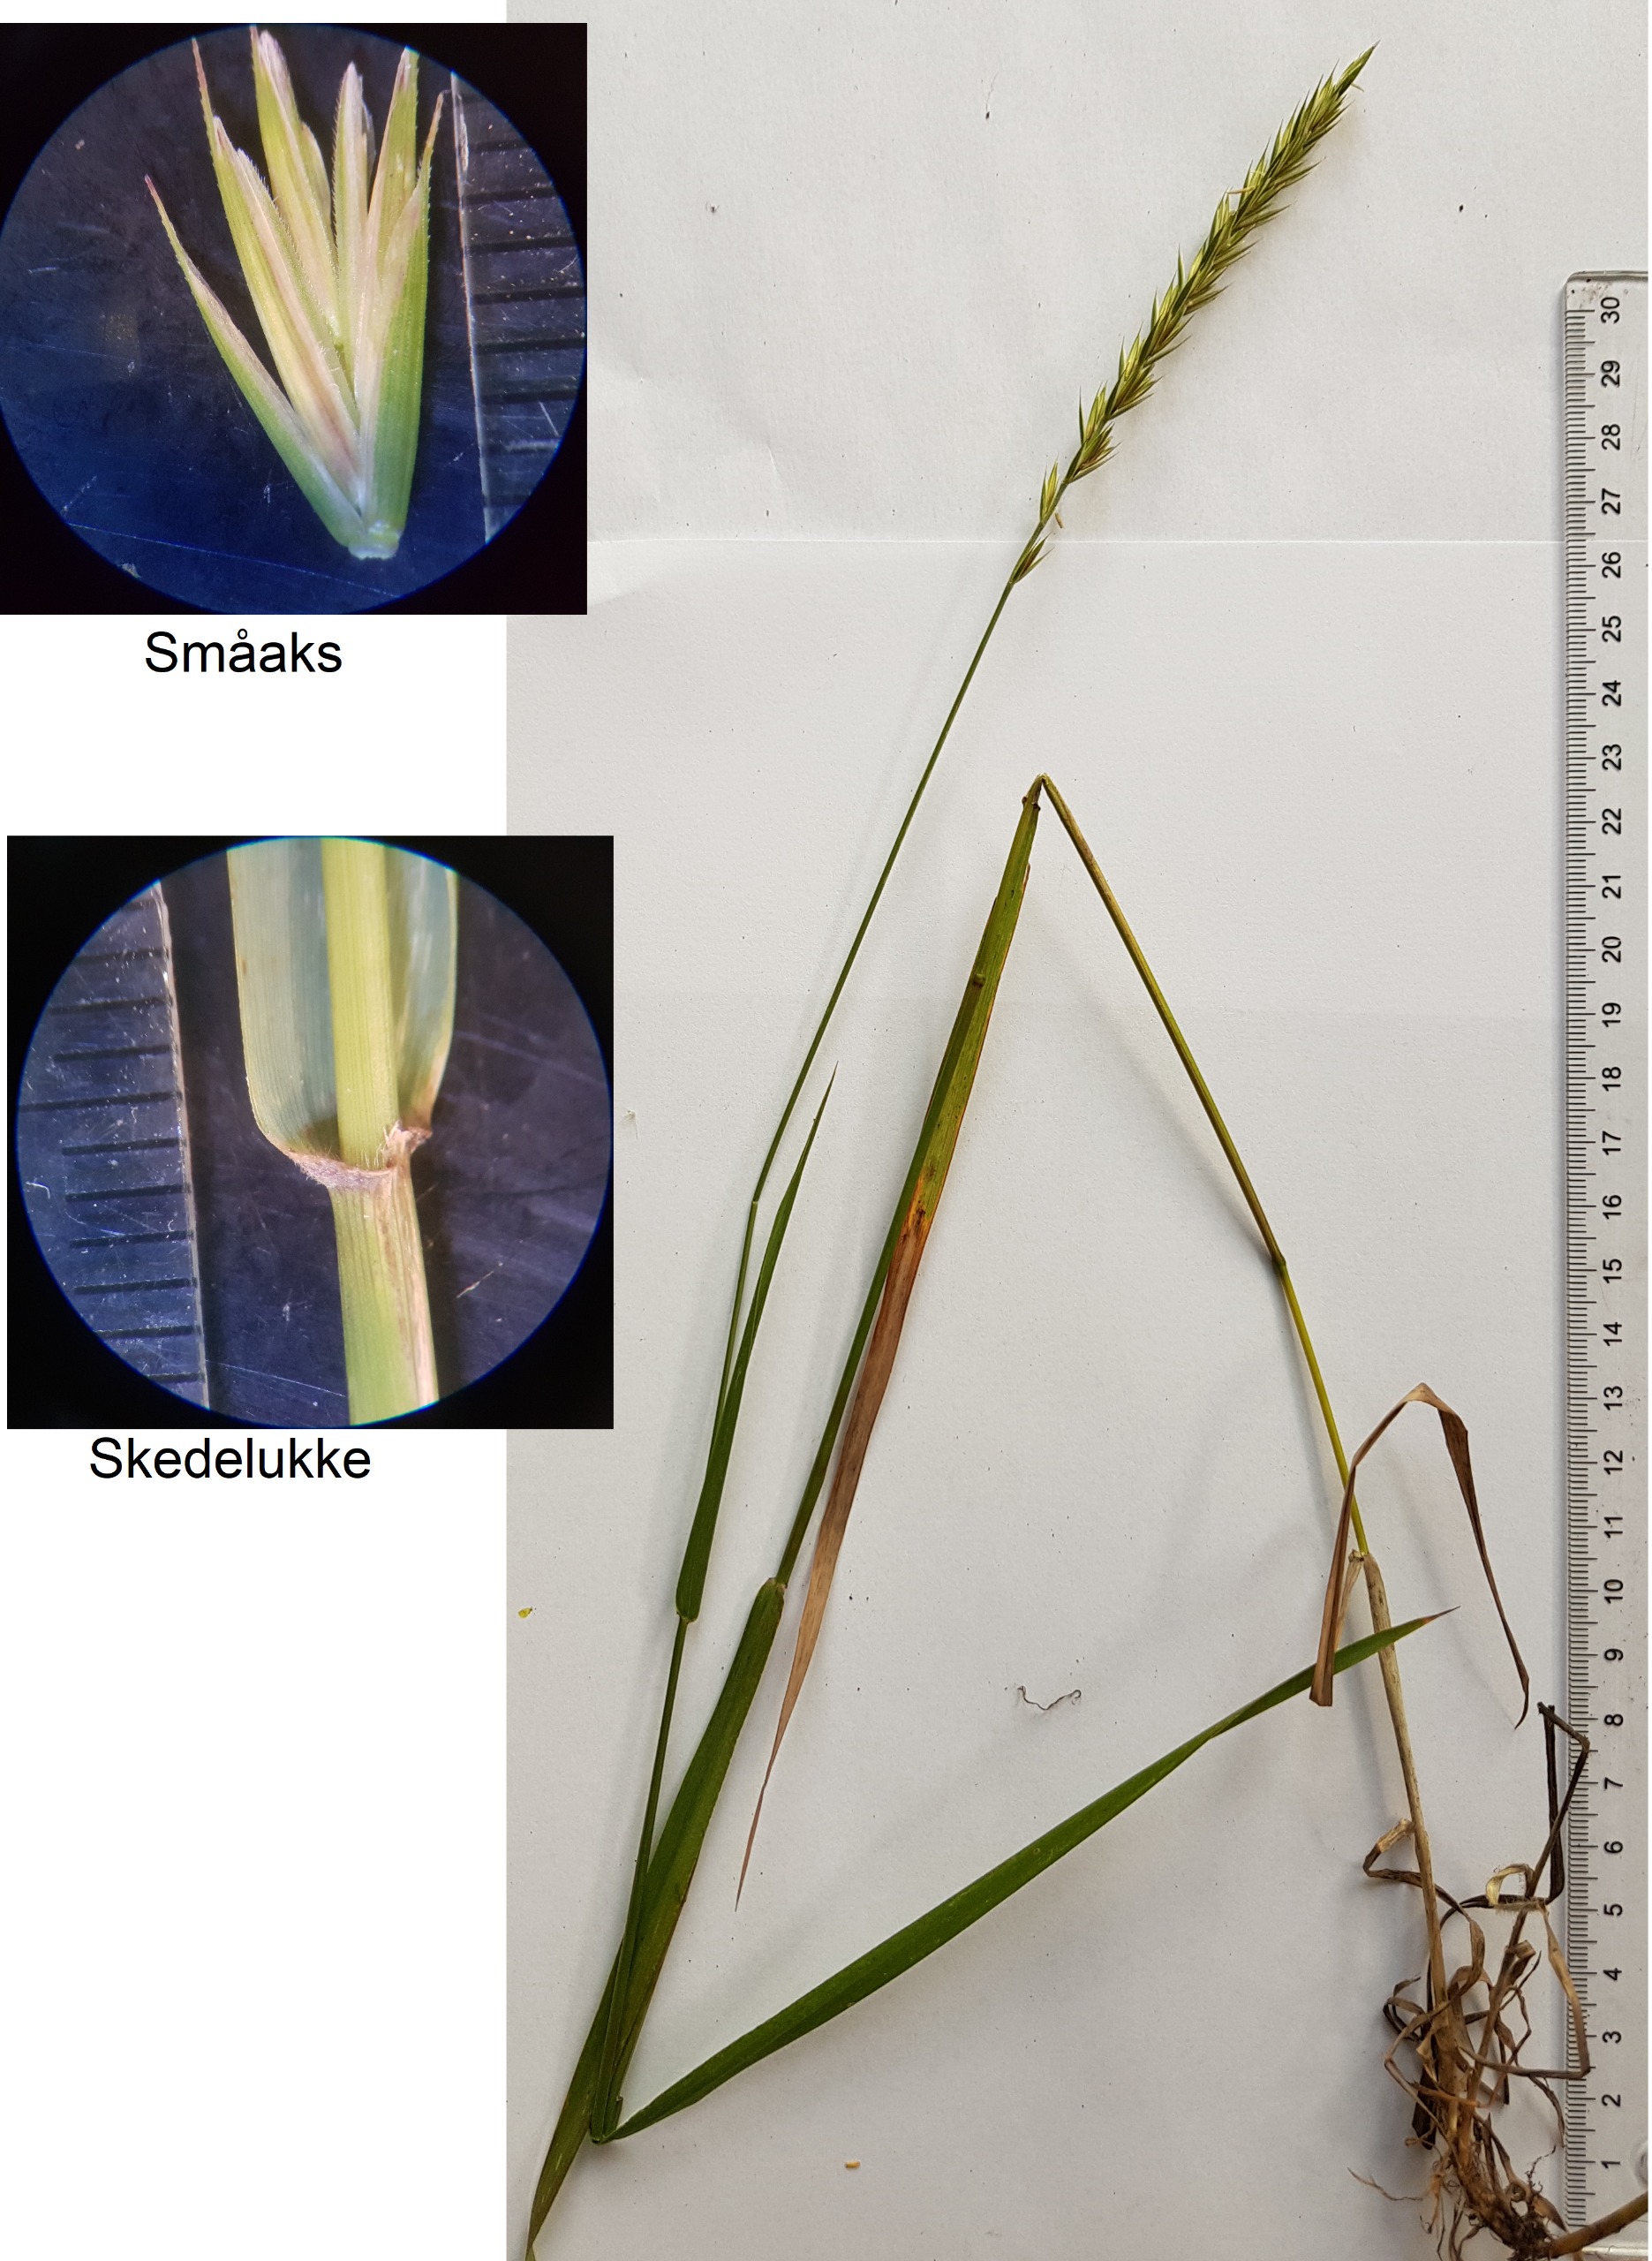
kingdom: Plantae
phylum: Tracheophyta
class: Liliopsida
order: Poales
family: Poaceae
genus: Elymus
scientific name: Elymus repens
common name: Almindelig kvik
